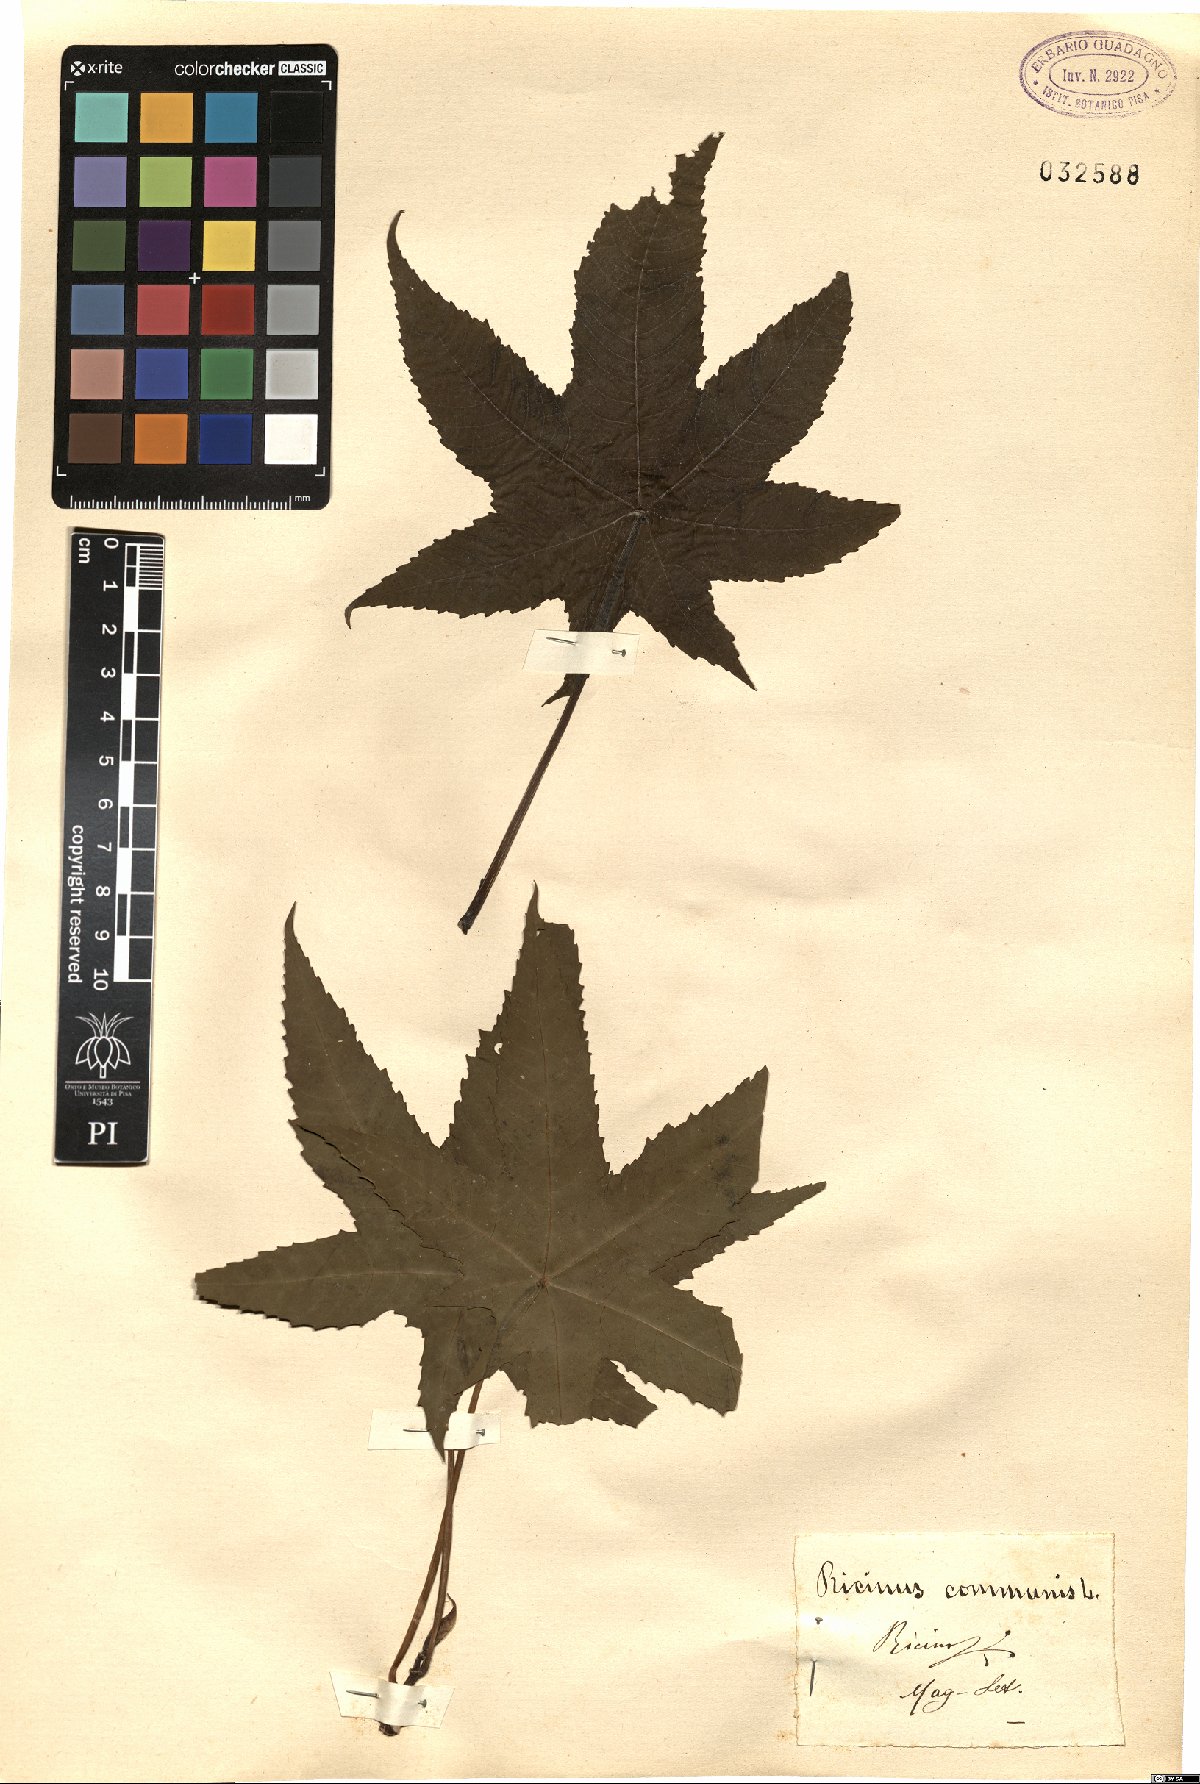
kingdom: Plantae
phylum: Tracheophyta
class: Magnoliopsida
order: Malpighiales
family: Euphorbiaceae
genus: Ricinus
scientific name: Ricinus communis
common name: Castor-oil-plant
